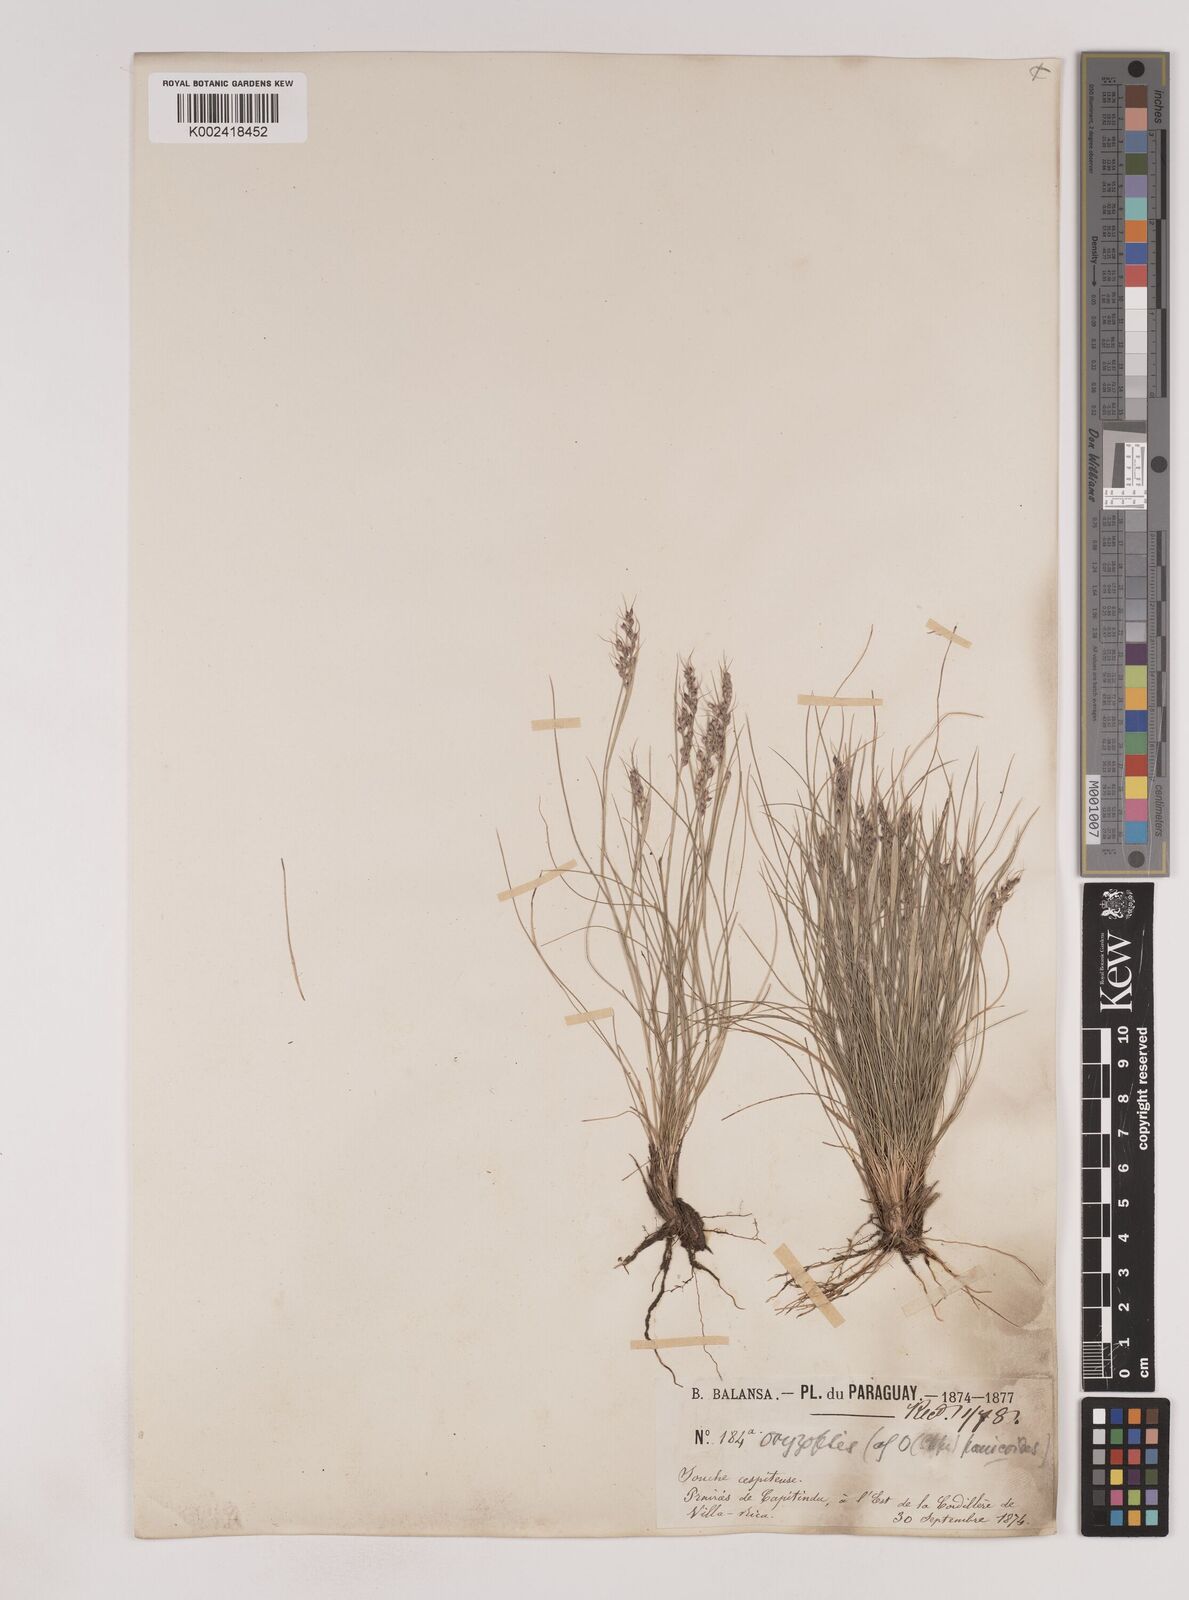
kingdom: Plantae
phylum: Tracheophyta
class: Liliopsida
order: Poales
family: Poaceae
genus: Piptochaetium
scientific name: Piptochaetium montevidense
